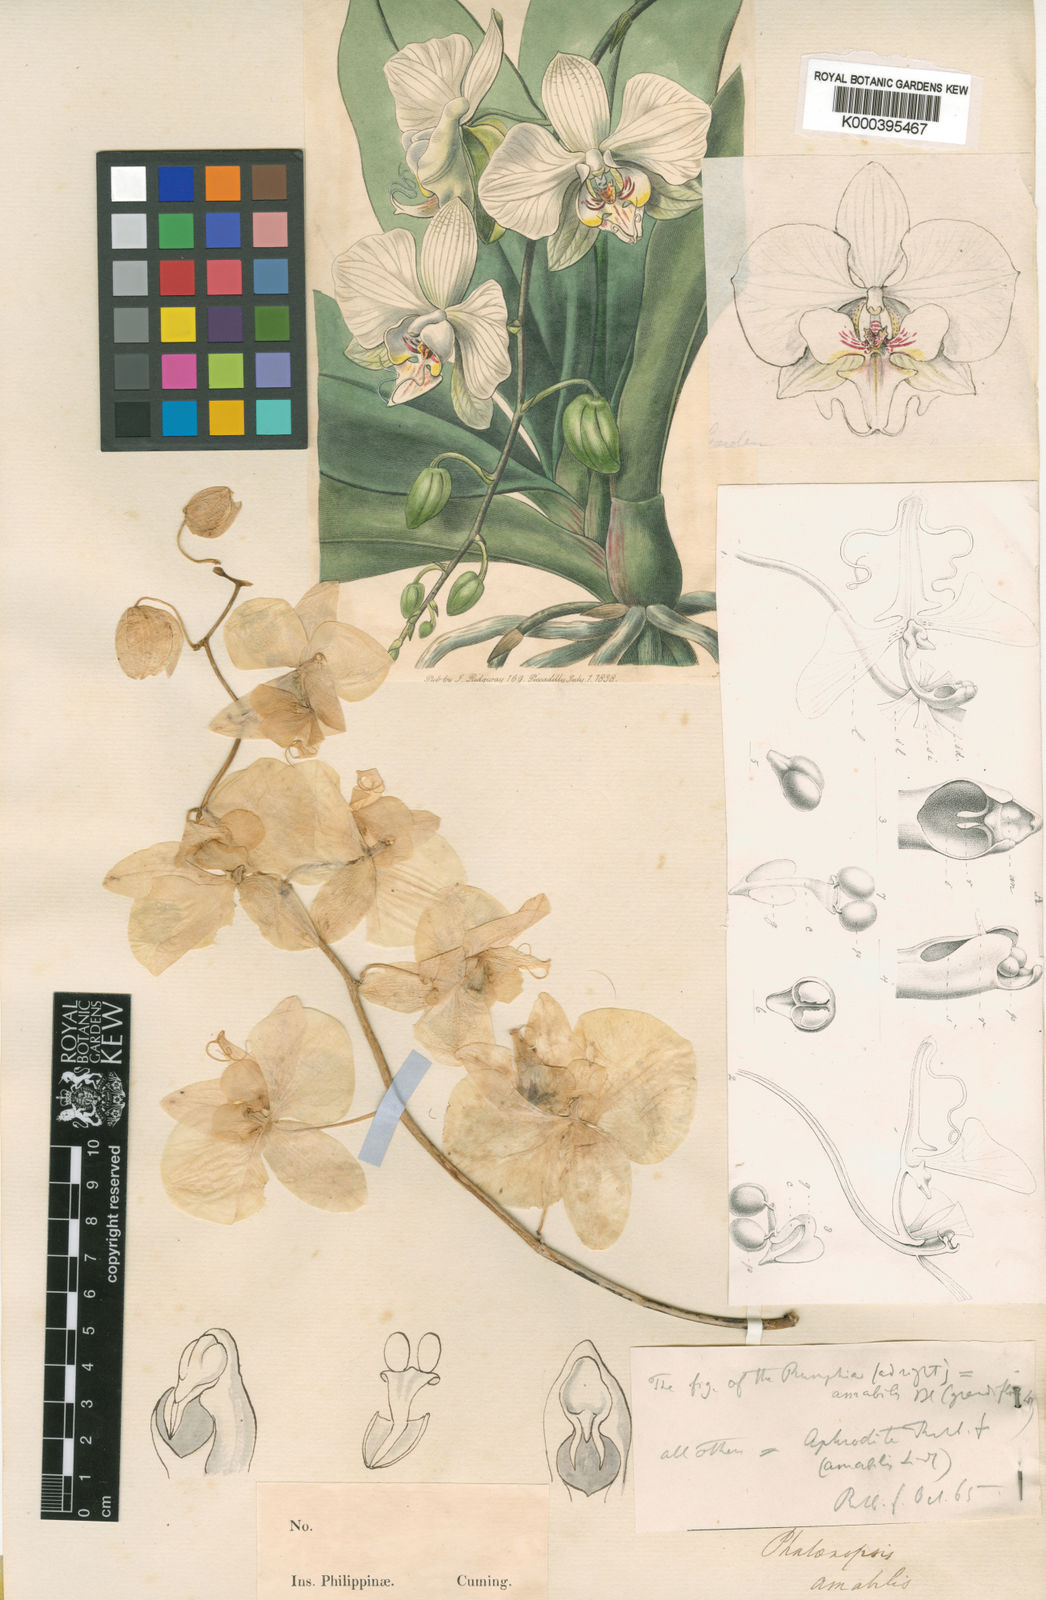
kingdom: Plantae
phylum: Tracheophyta
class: Liliopsida
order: Asparagales
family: Orchidaceae
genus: Phalaenopsis
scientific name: Phalaenopsis amabilis
